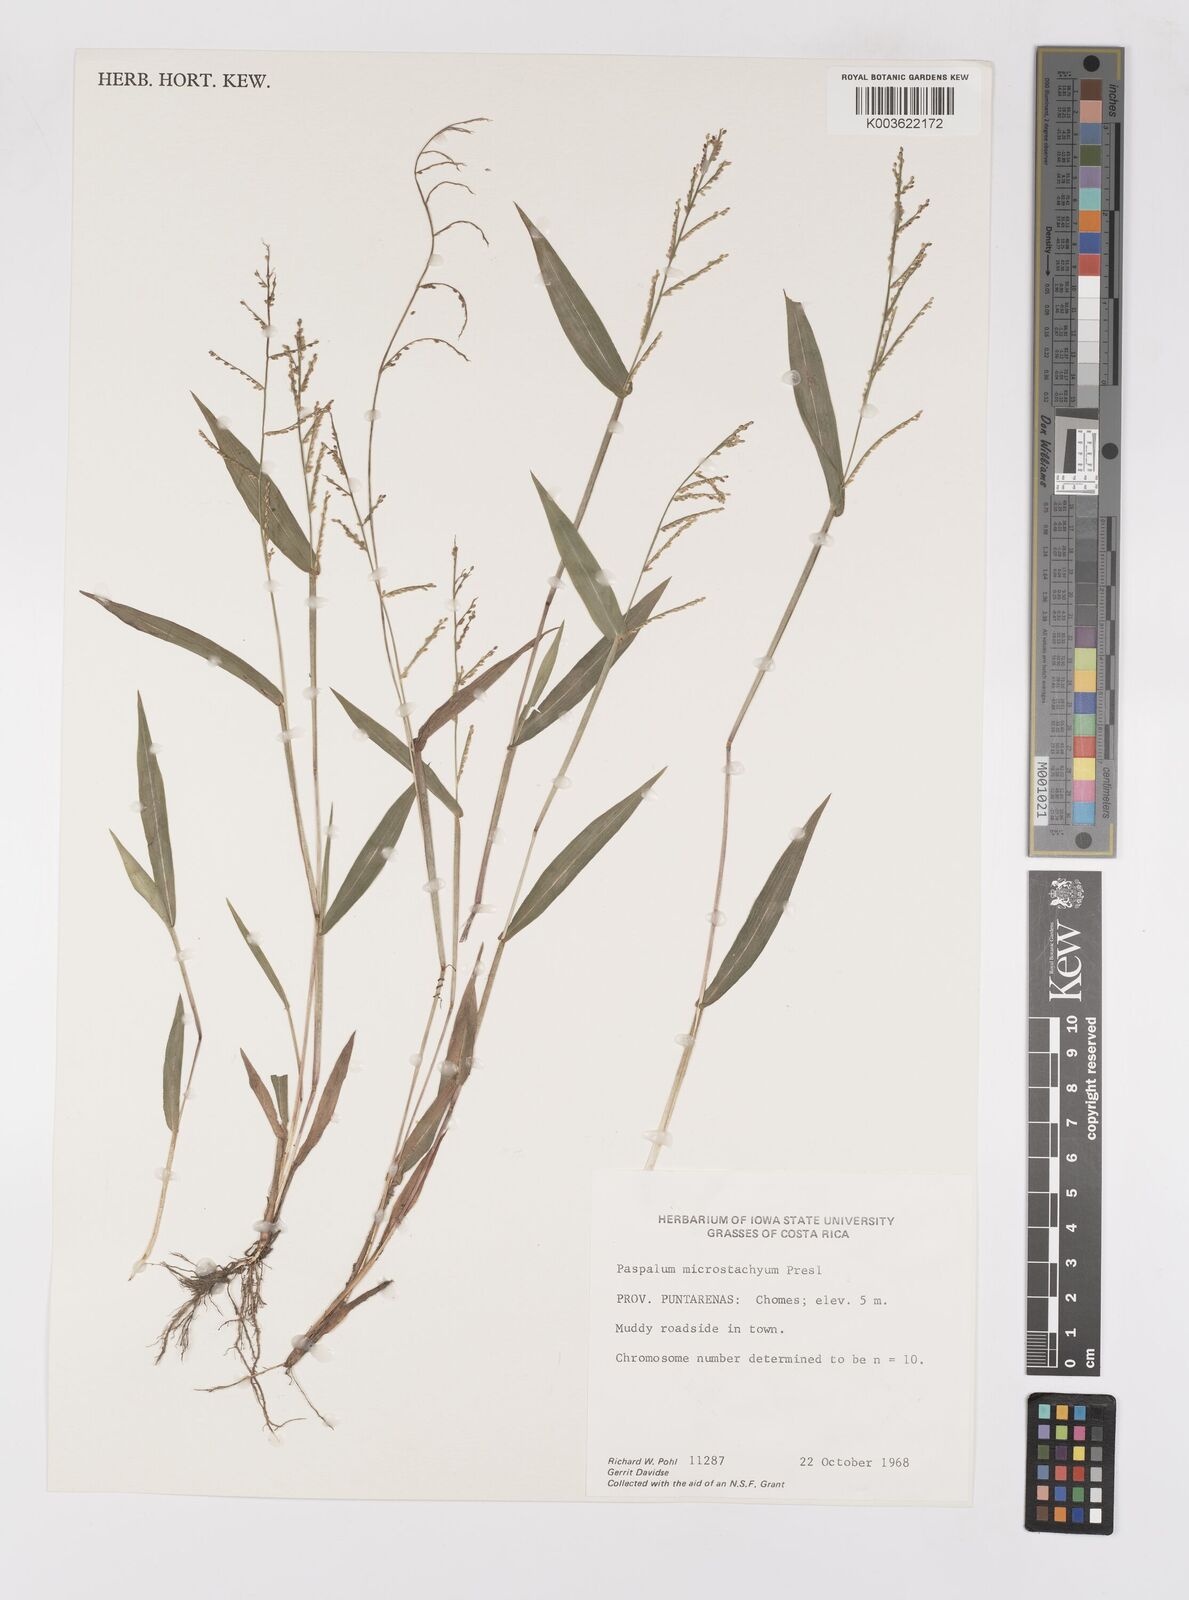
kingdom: Plantae
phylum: Tracheophyta
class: Liliopsida
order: Poales
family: Poaceae
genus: Paspalum
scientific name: Paspalum microstachyum
